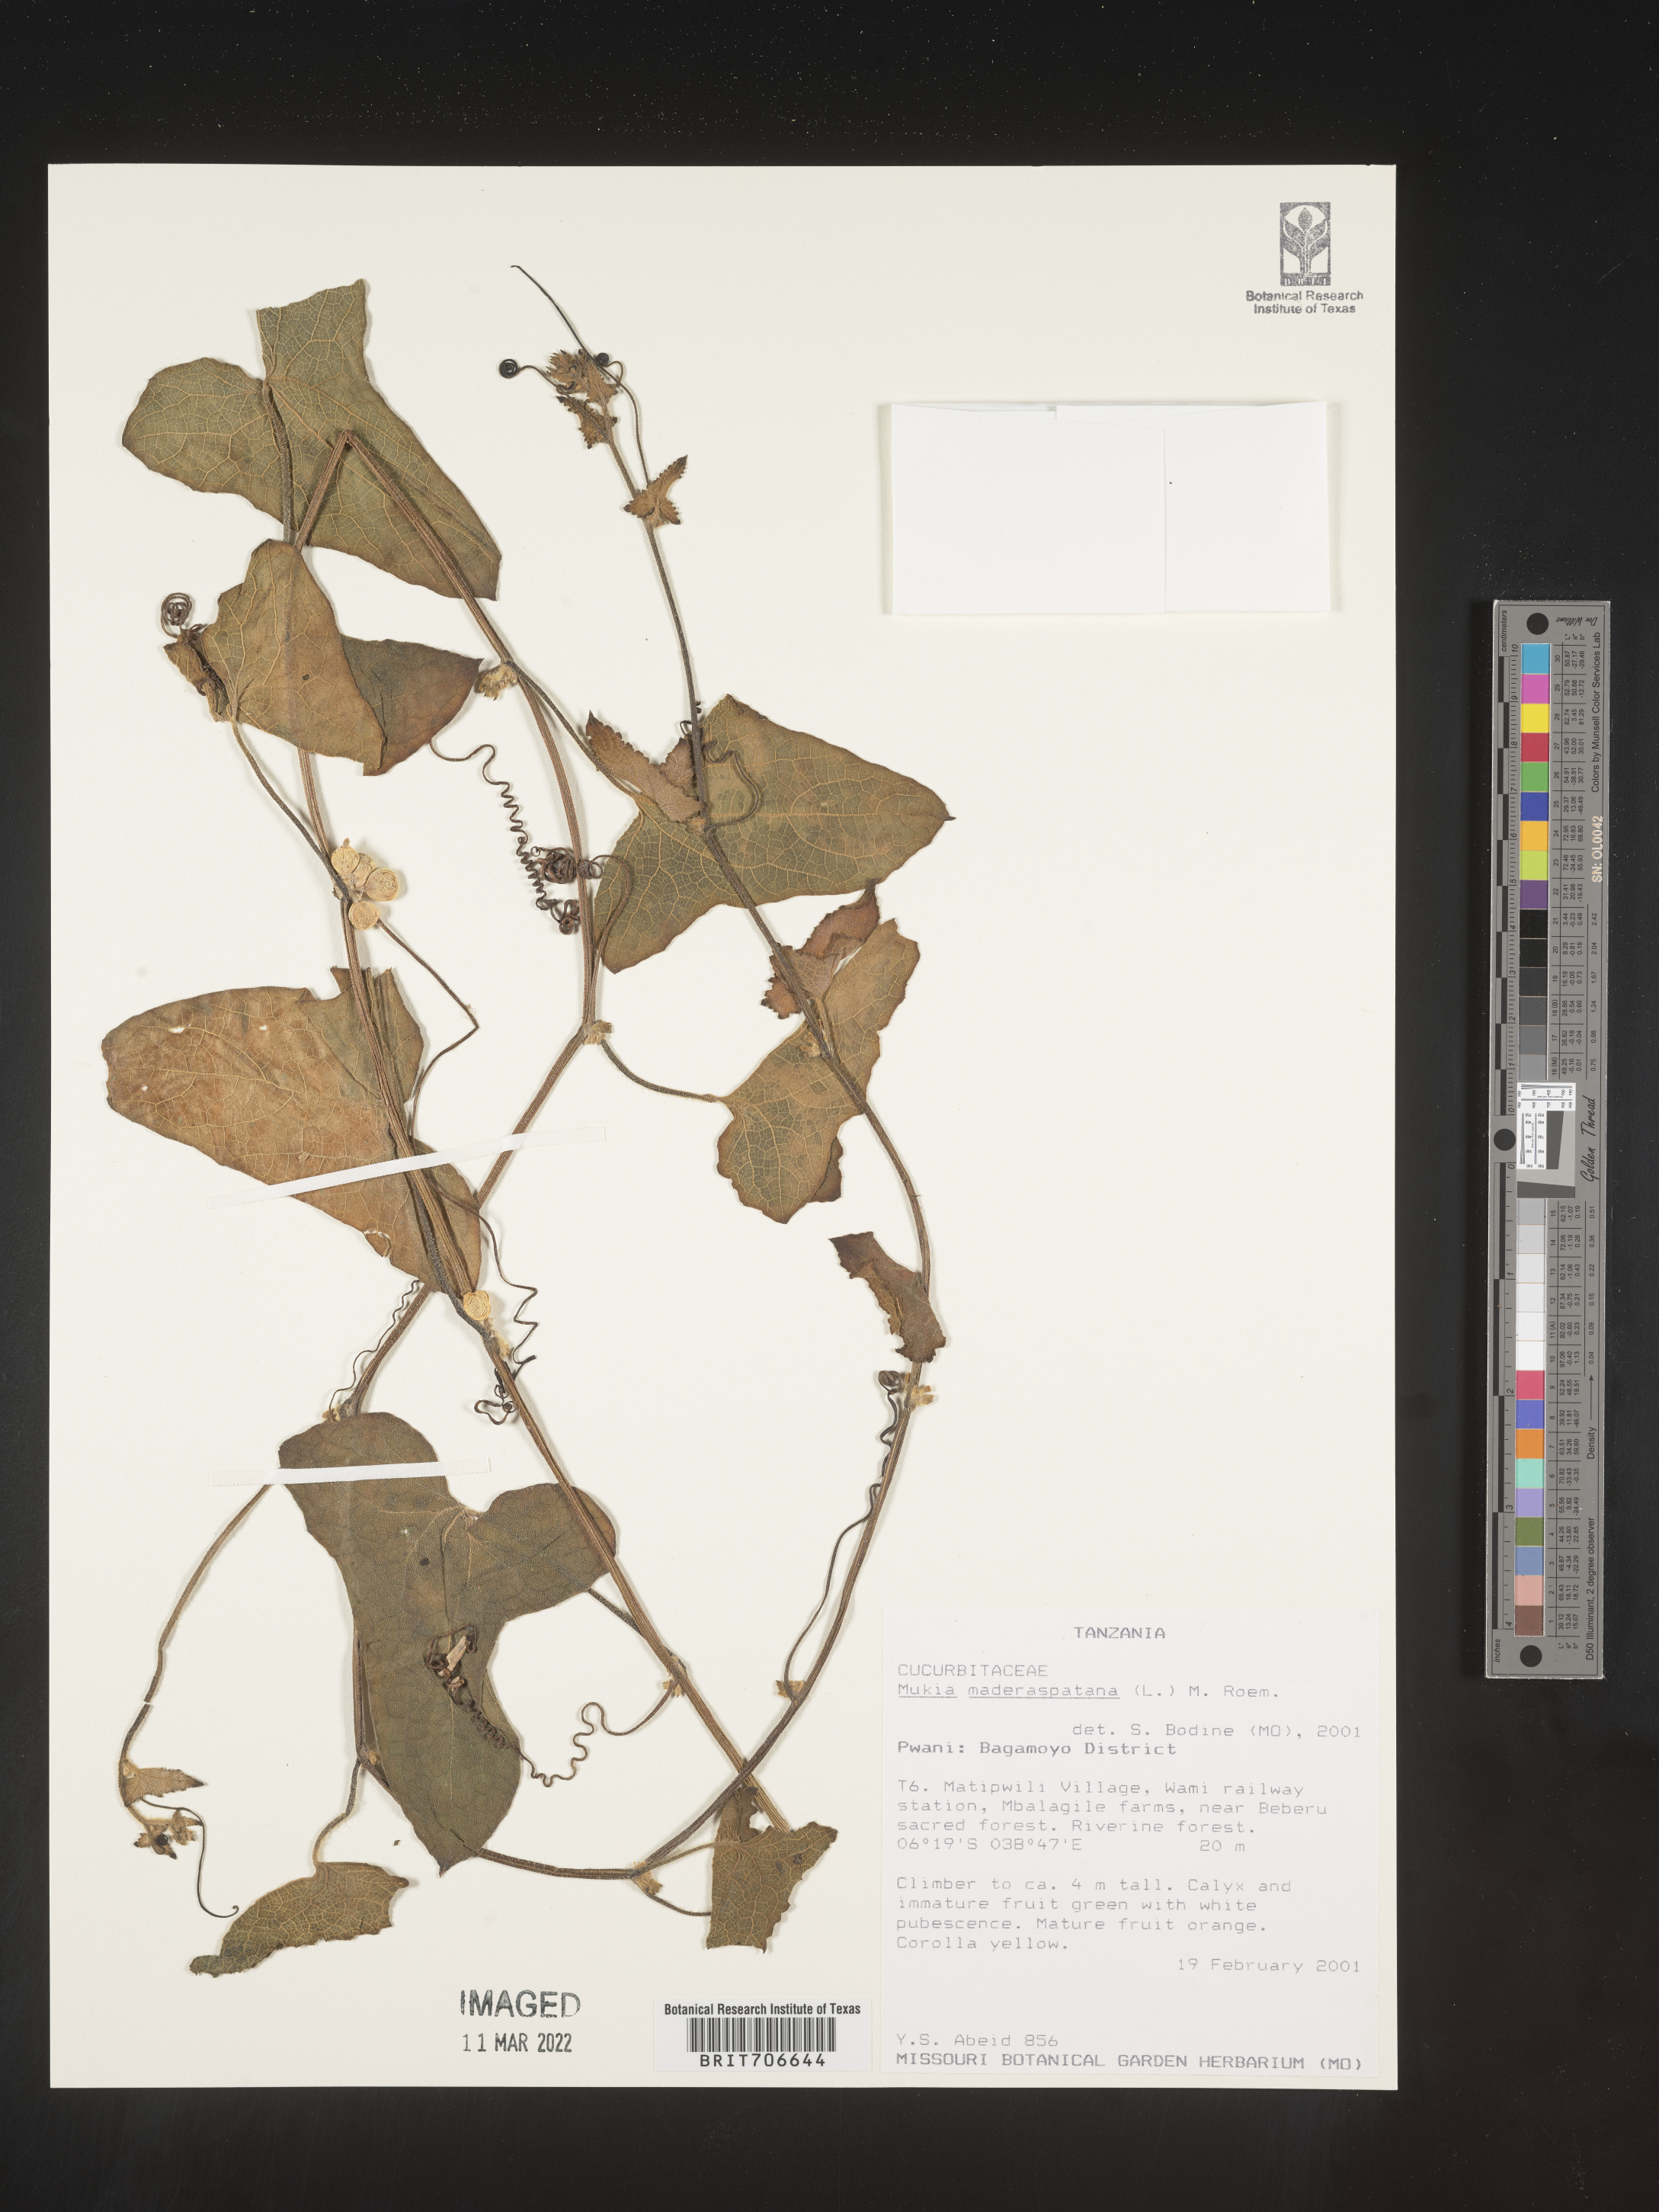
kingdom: Animalia
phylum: Arthropoda
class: Insecta
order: Lepidoptera
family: Crambidae
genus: Mukia
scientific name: Mukia
